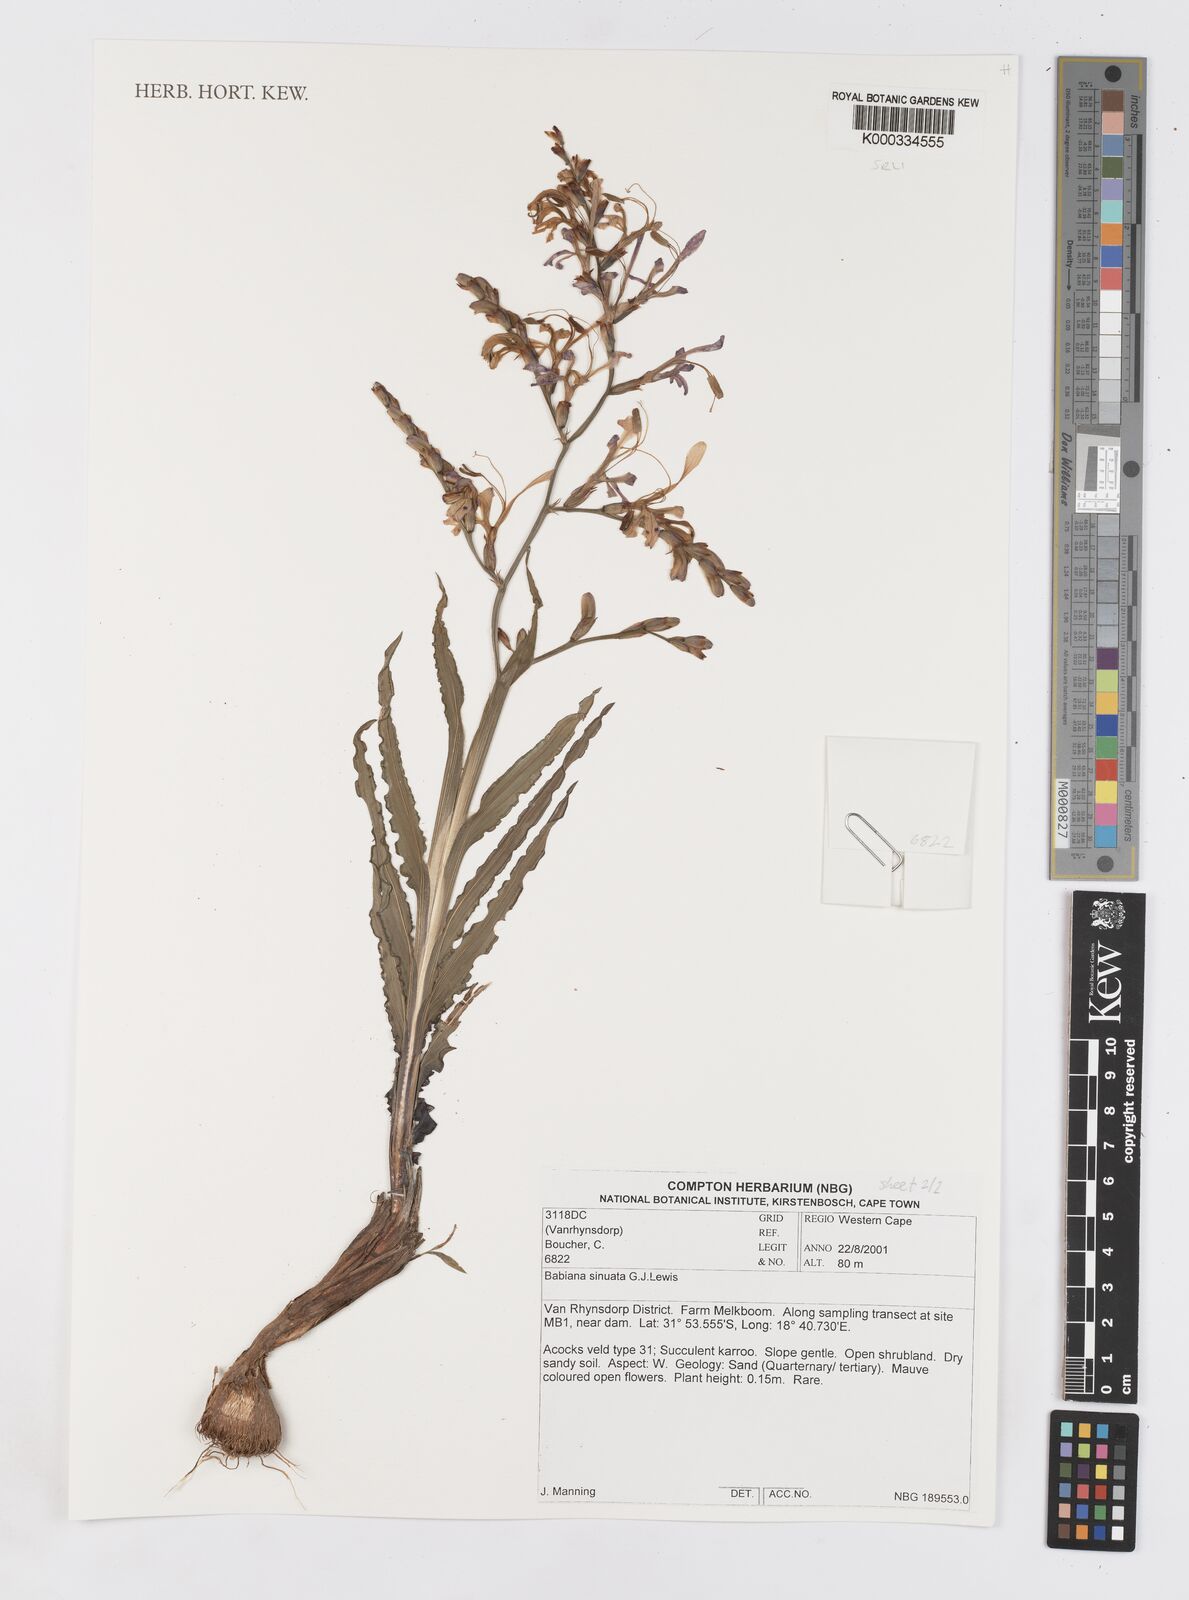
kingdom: Plantae
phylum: Tracheophyta
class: Liliopsida
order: Asparagales
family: Iridaceae
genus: Babiana
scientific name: Babiana
